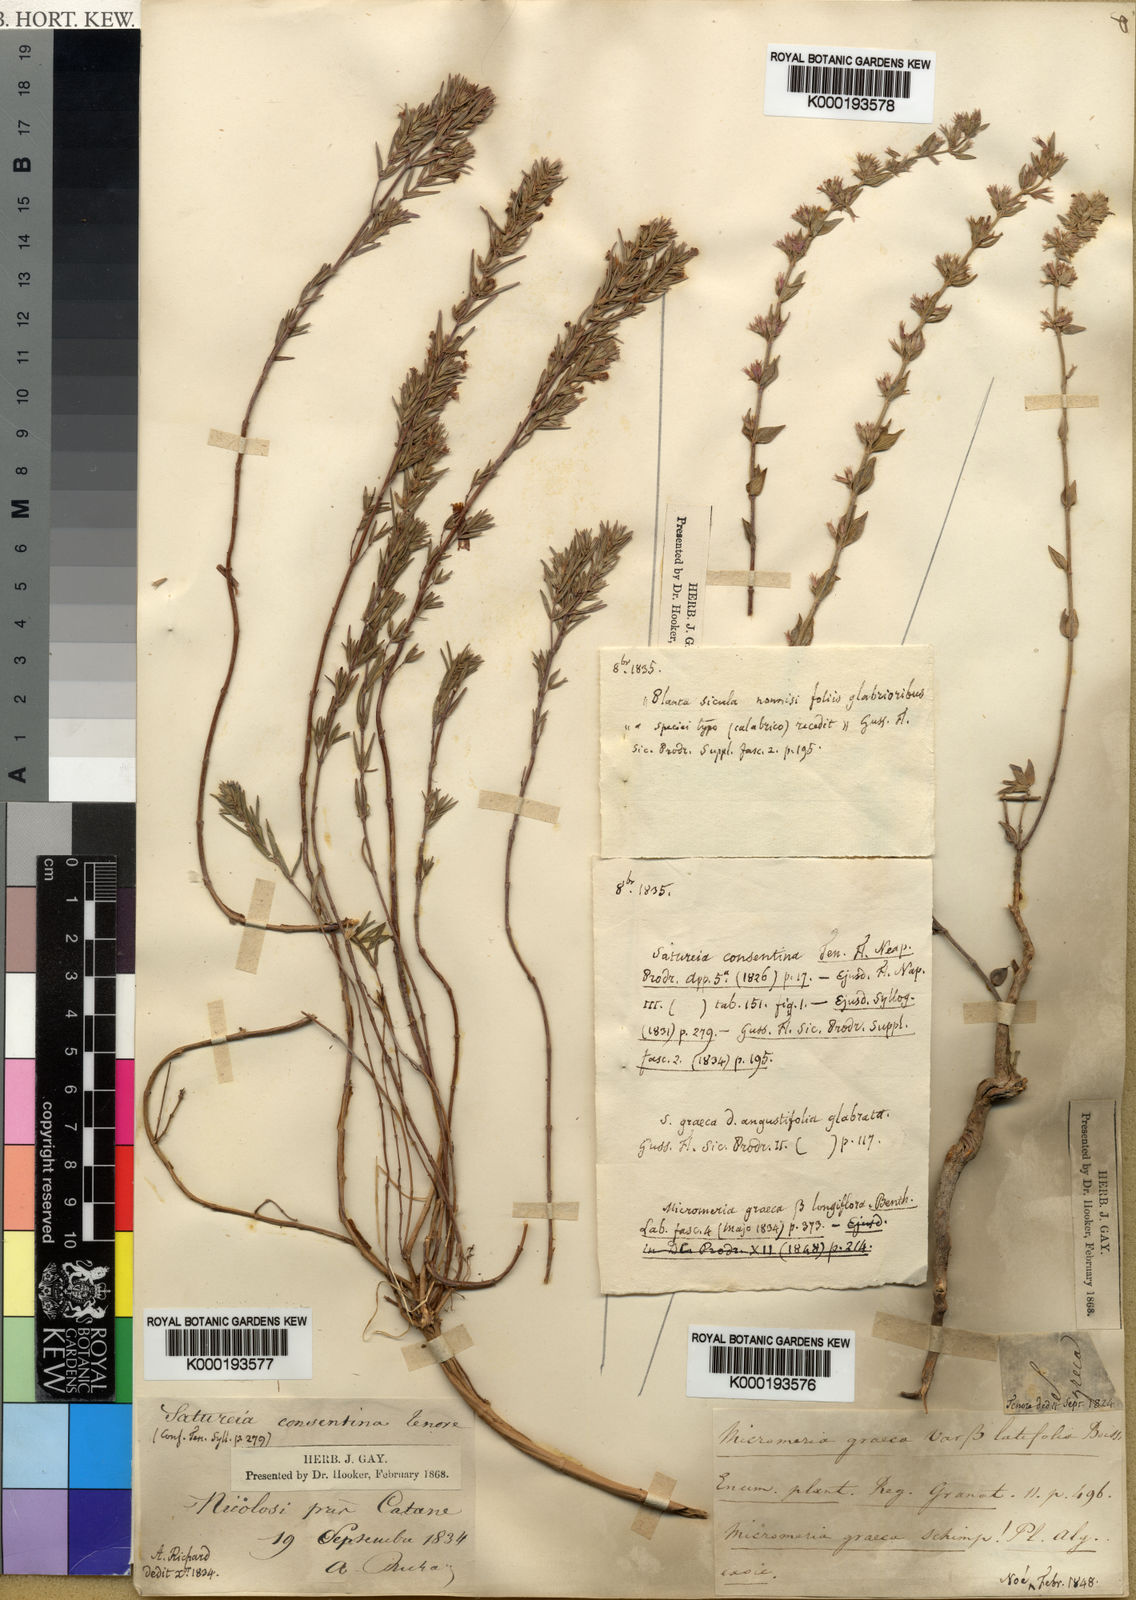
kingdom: Plantae
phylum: Tracheophyta
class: Magnoliopsida
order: Lamiales
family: Lamiaceae
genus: Micromeria
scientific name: Micromeria graeca
